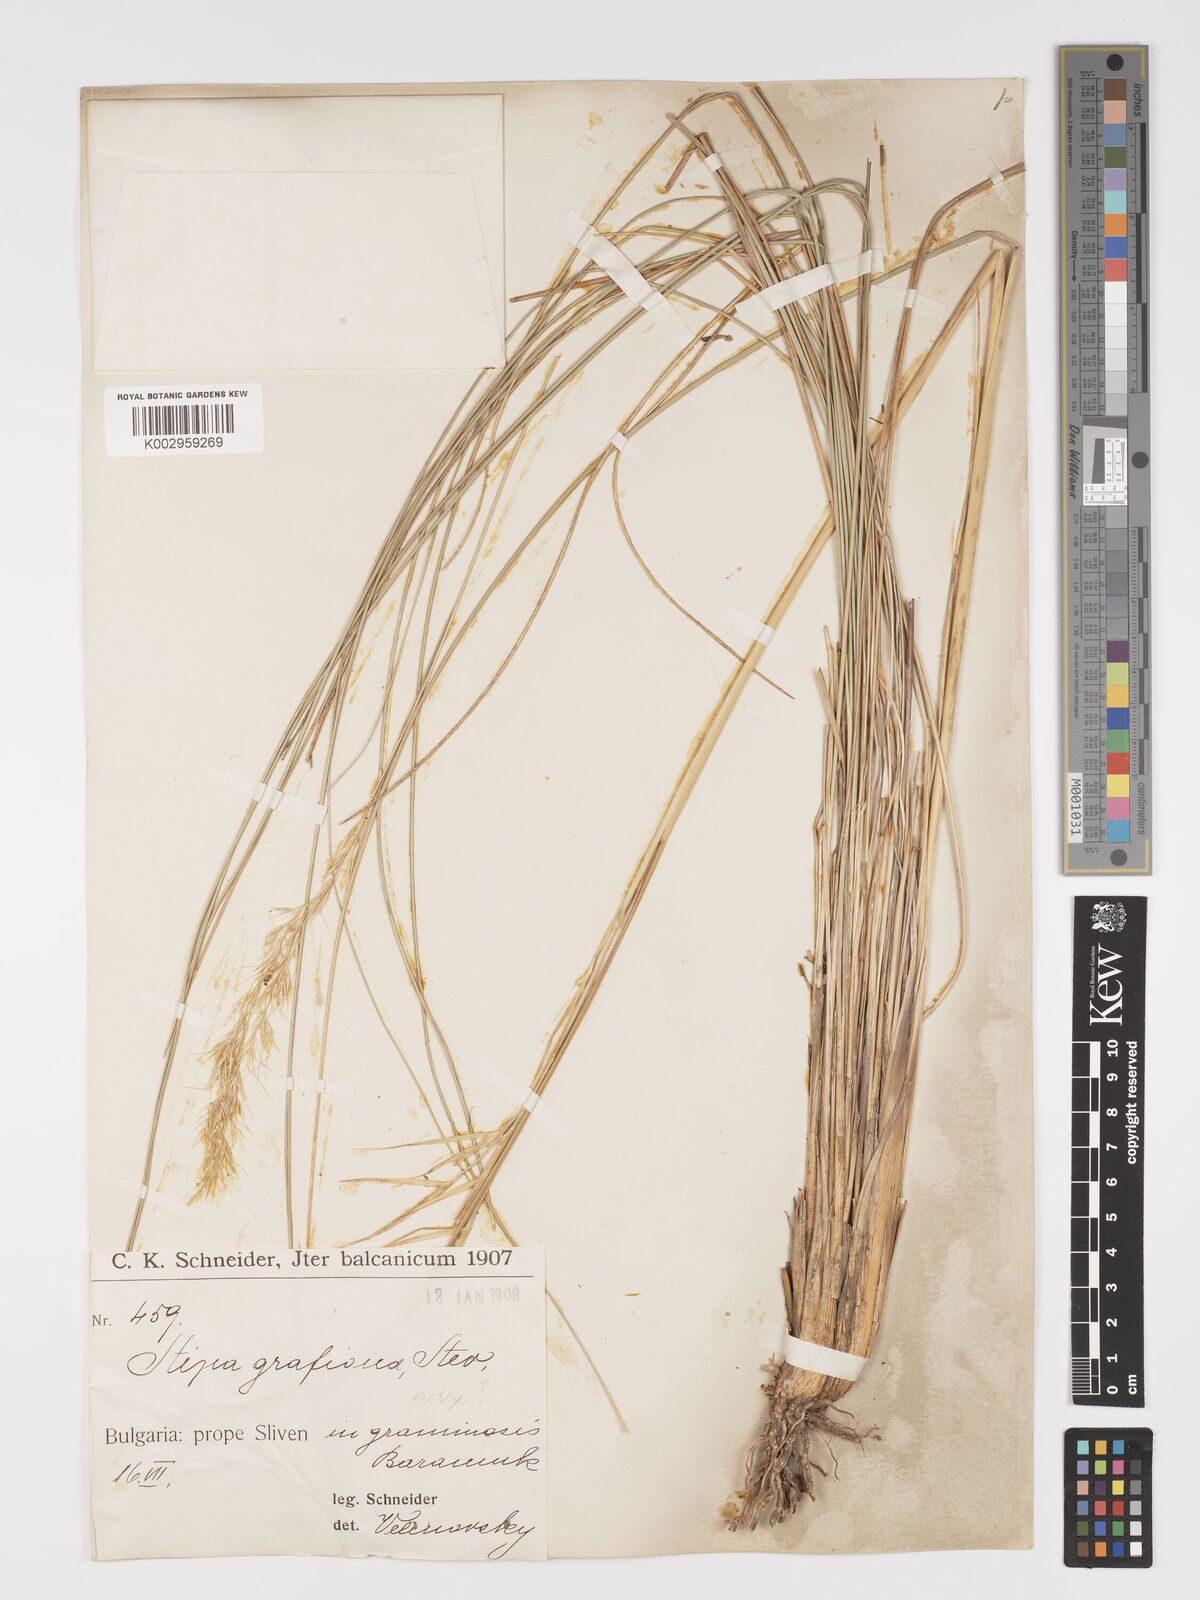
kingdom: Plantae
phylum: Tracheophyta
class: Liliopsida
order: Poales
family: Poaceae
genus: Stipa
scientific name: Stipa pulcherrima
